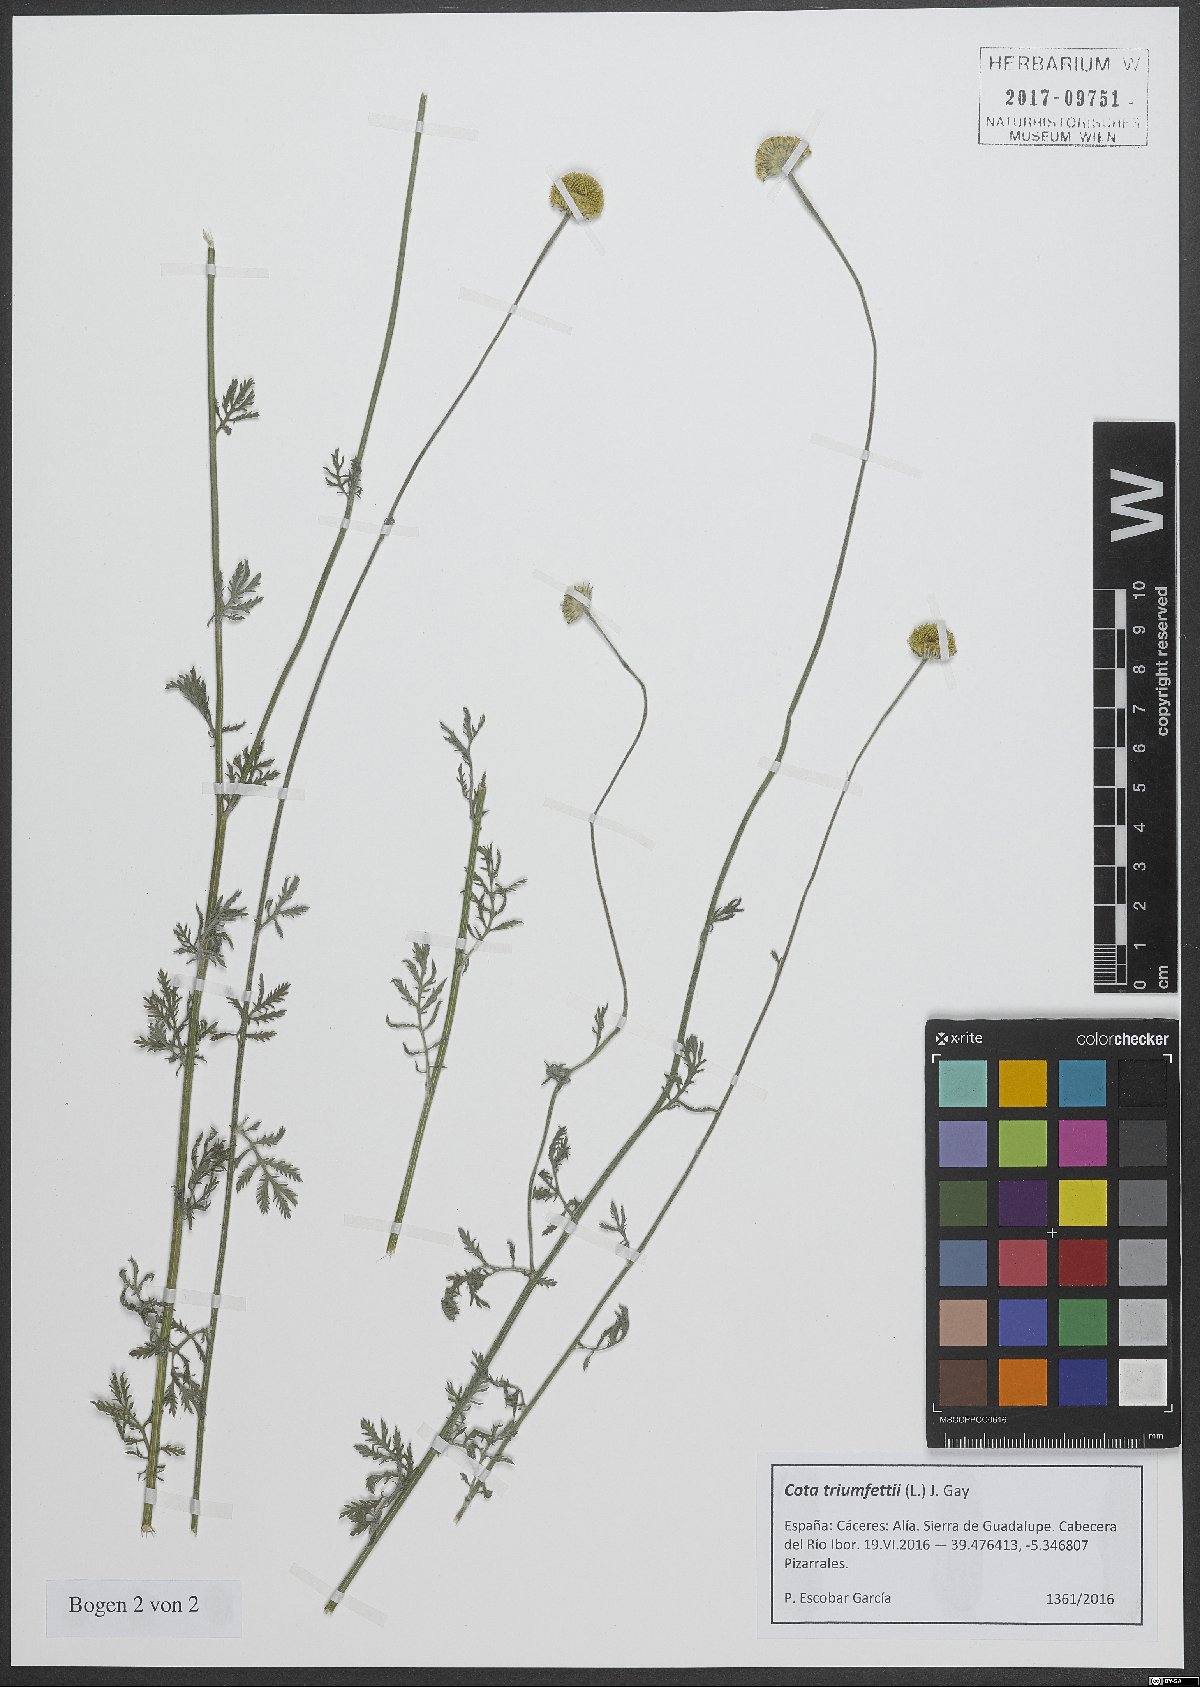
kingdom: Plantae
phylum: Tracheophyta
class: Magnoliopsida
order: Asterales
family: Asteraceae
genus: Cota
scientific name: Cota triumfetti
